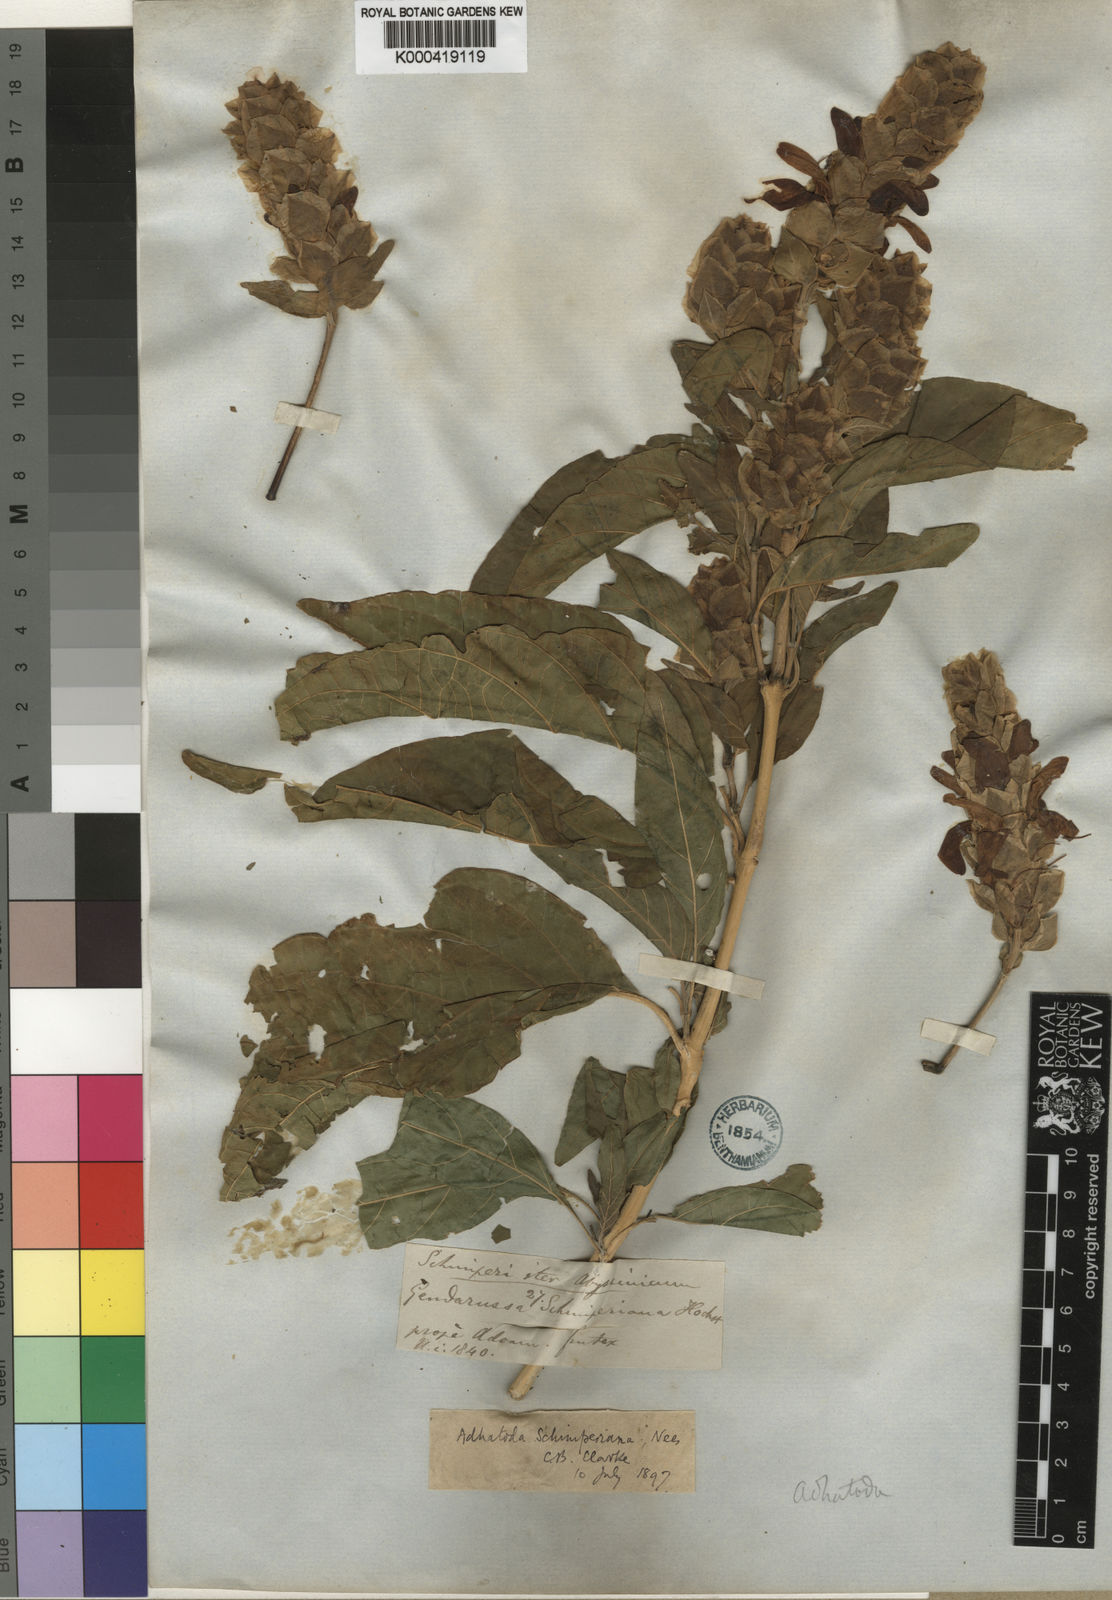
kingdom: Plantae
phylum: Tracheophyta
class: Magnoliopsida
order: Lamiales
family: Acanthaceae
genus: Justicia
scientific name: Justicia schimperiana
